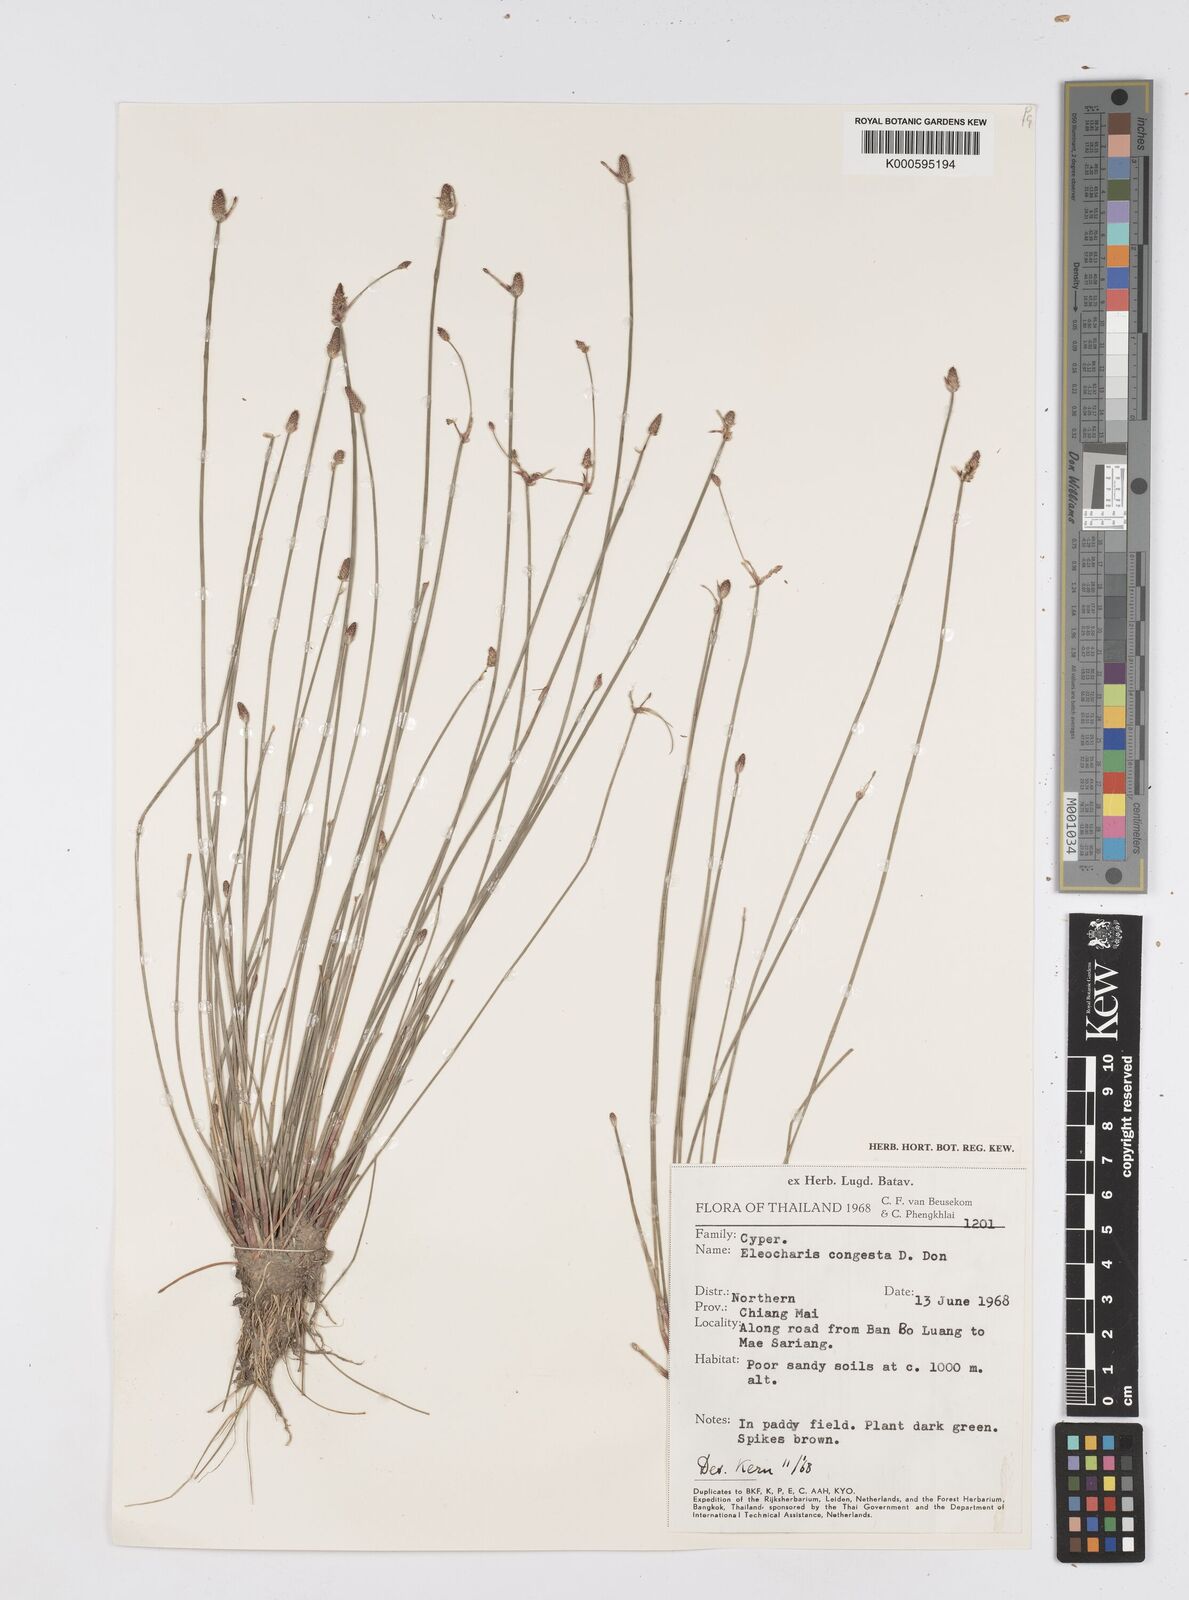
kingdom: Plantae
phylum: Tracheophyta
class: Liliopsida
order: Poales
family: Cyperaceae
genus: Eleocharis
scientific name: Eleocharis congesta
